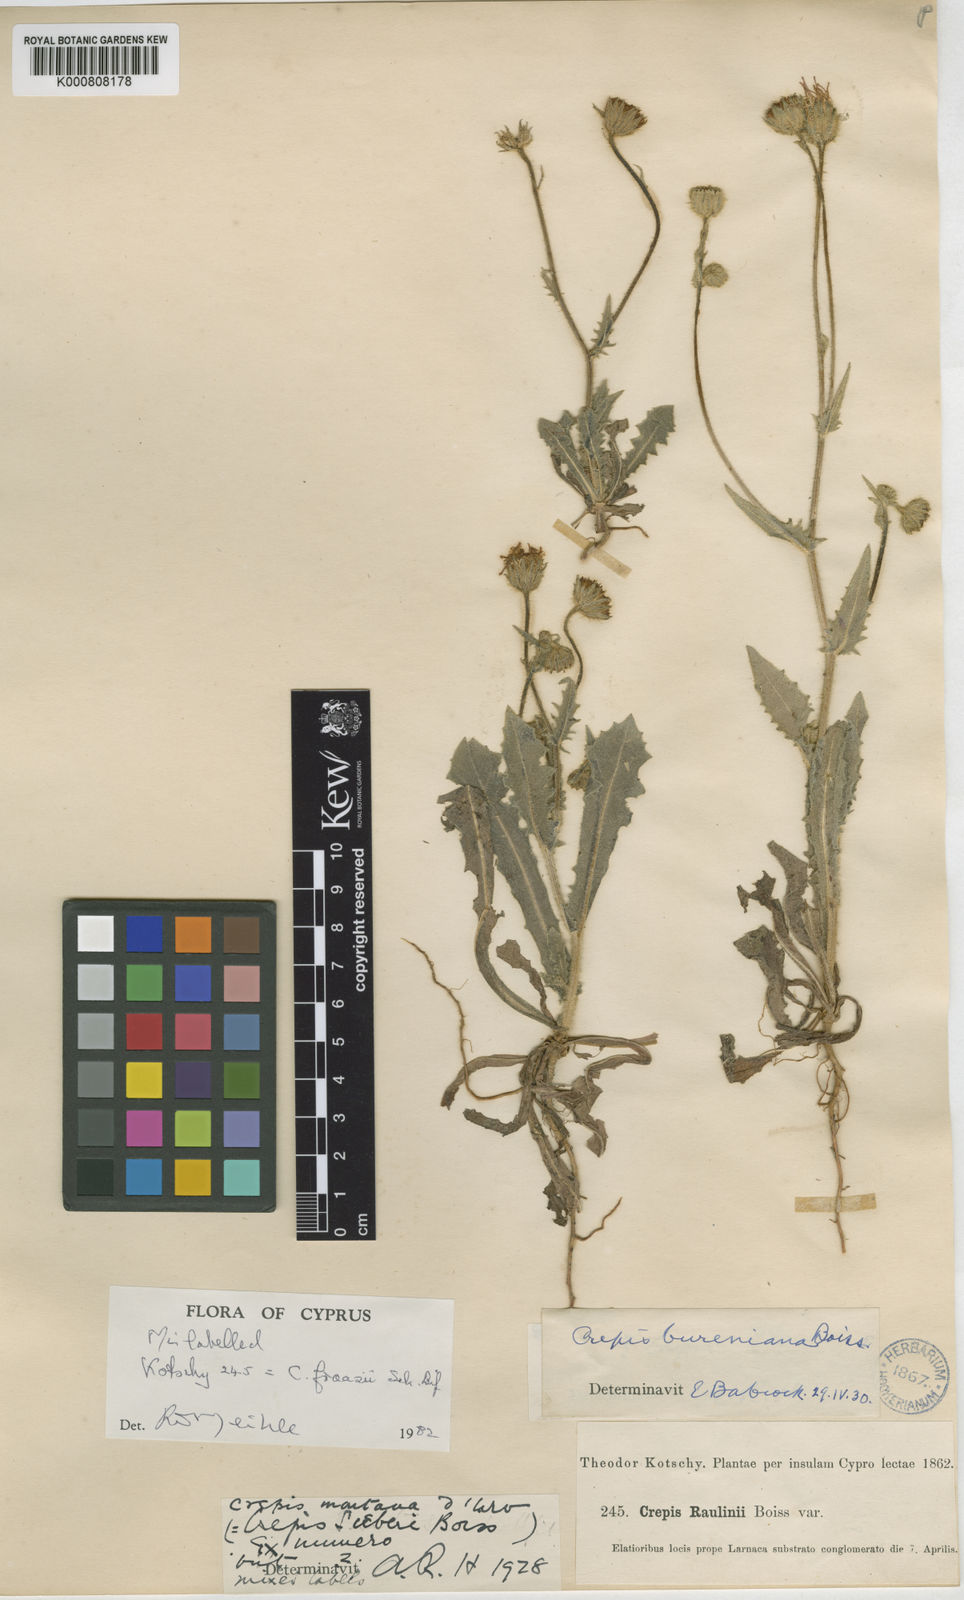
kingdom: Plantae
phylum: Tracheophyta
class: Magnoliopsida
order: Asterales
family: Asteraceae
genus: Crepis
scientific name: Crepis kotschyana
